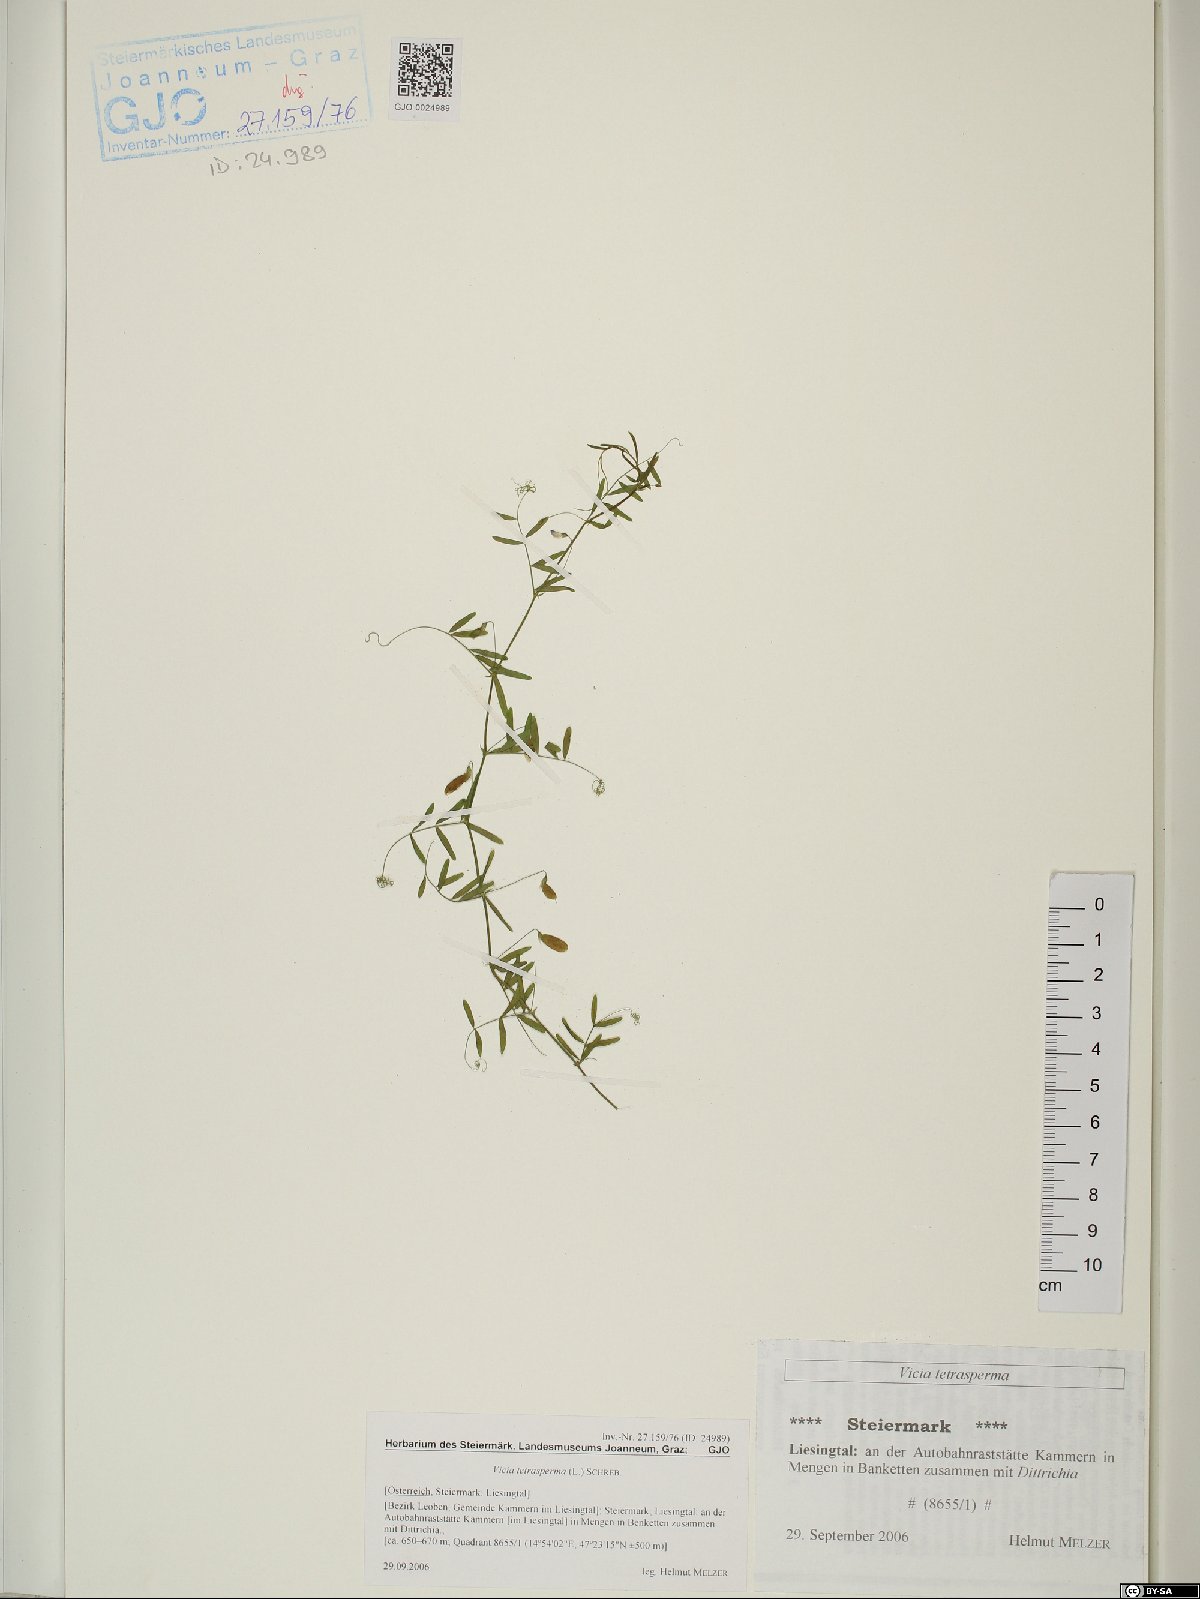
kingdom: Plantae
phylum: Tracheophyta
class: Magnoliopsida
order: Fabales
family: Fabaceae
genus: Vicia
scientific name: Vicia tetrasperma
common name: Smooth tare
